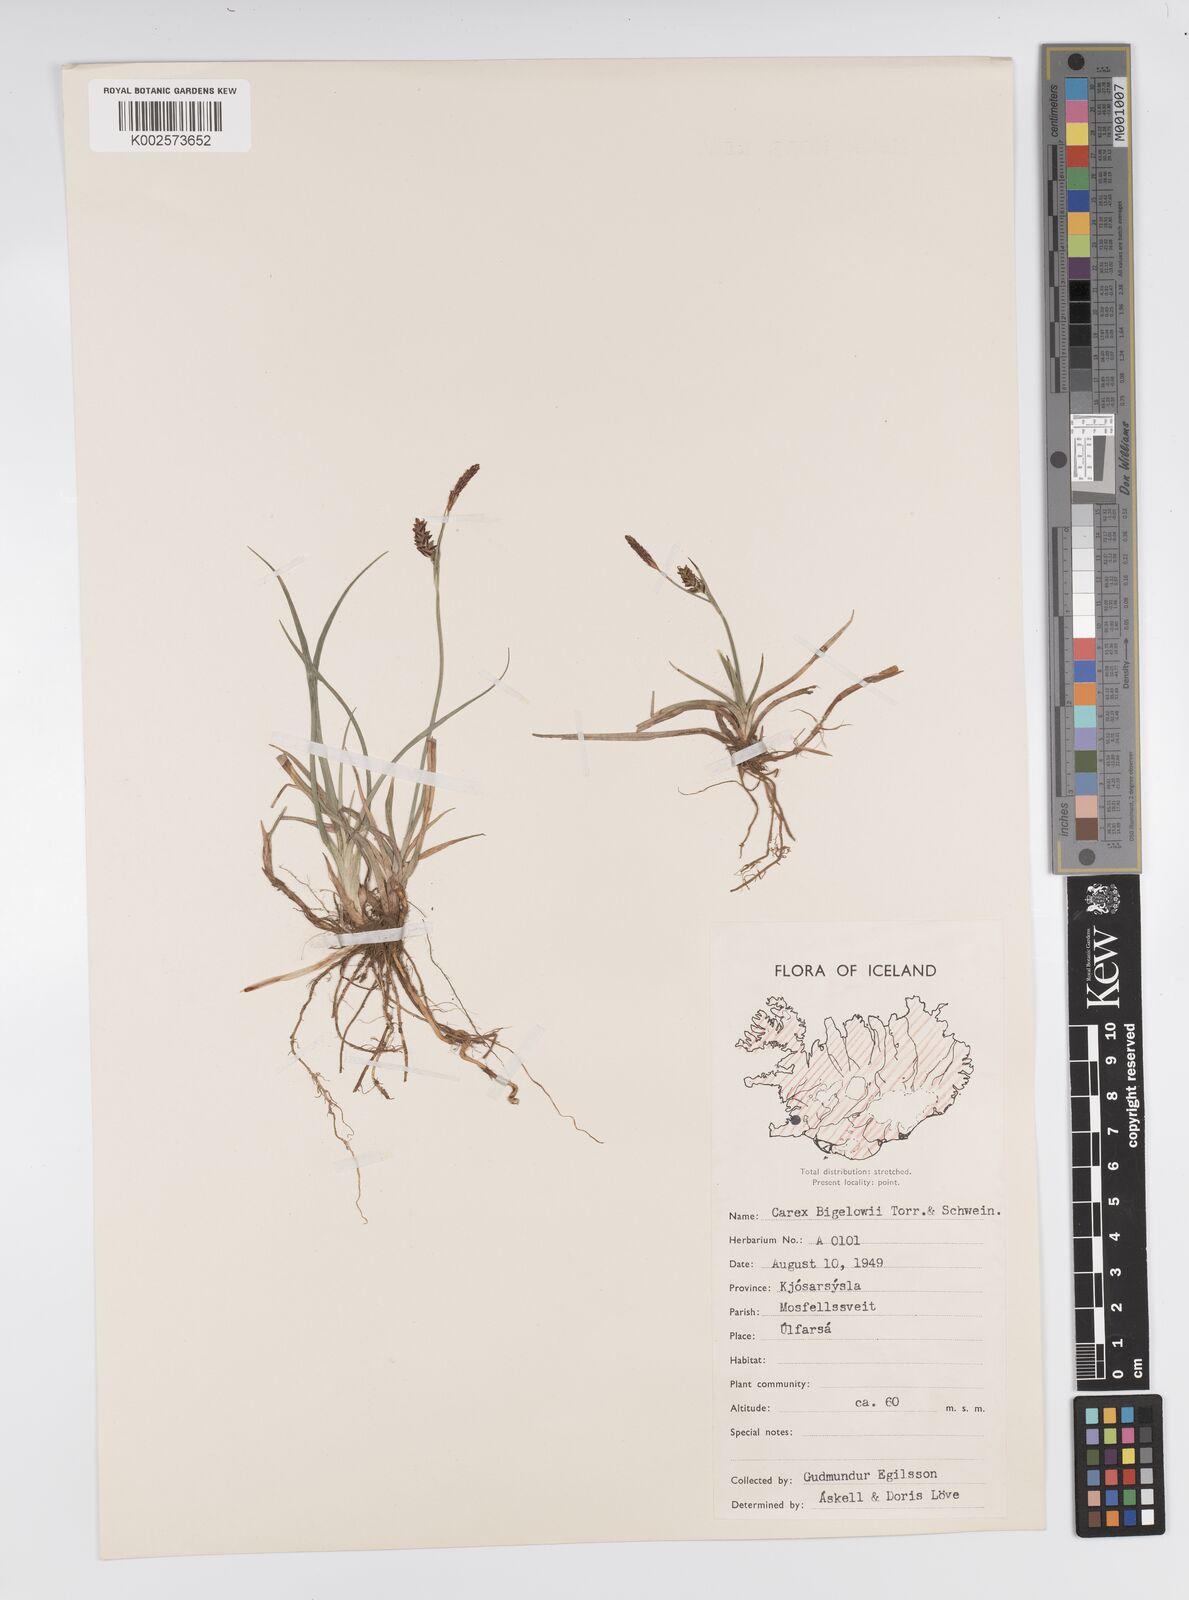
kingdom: Plantae
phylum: Tracheophyta
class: Liliopsida
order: Poales
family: Cyperaceae
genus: Carex
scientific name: Carex panicea
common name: Carnation sedge
